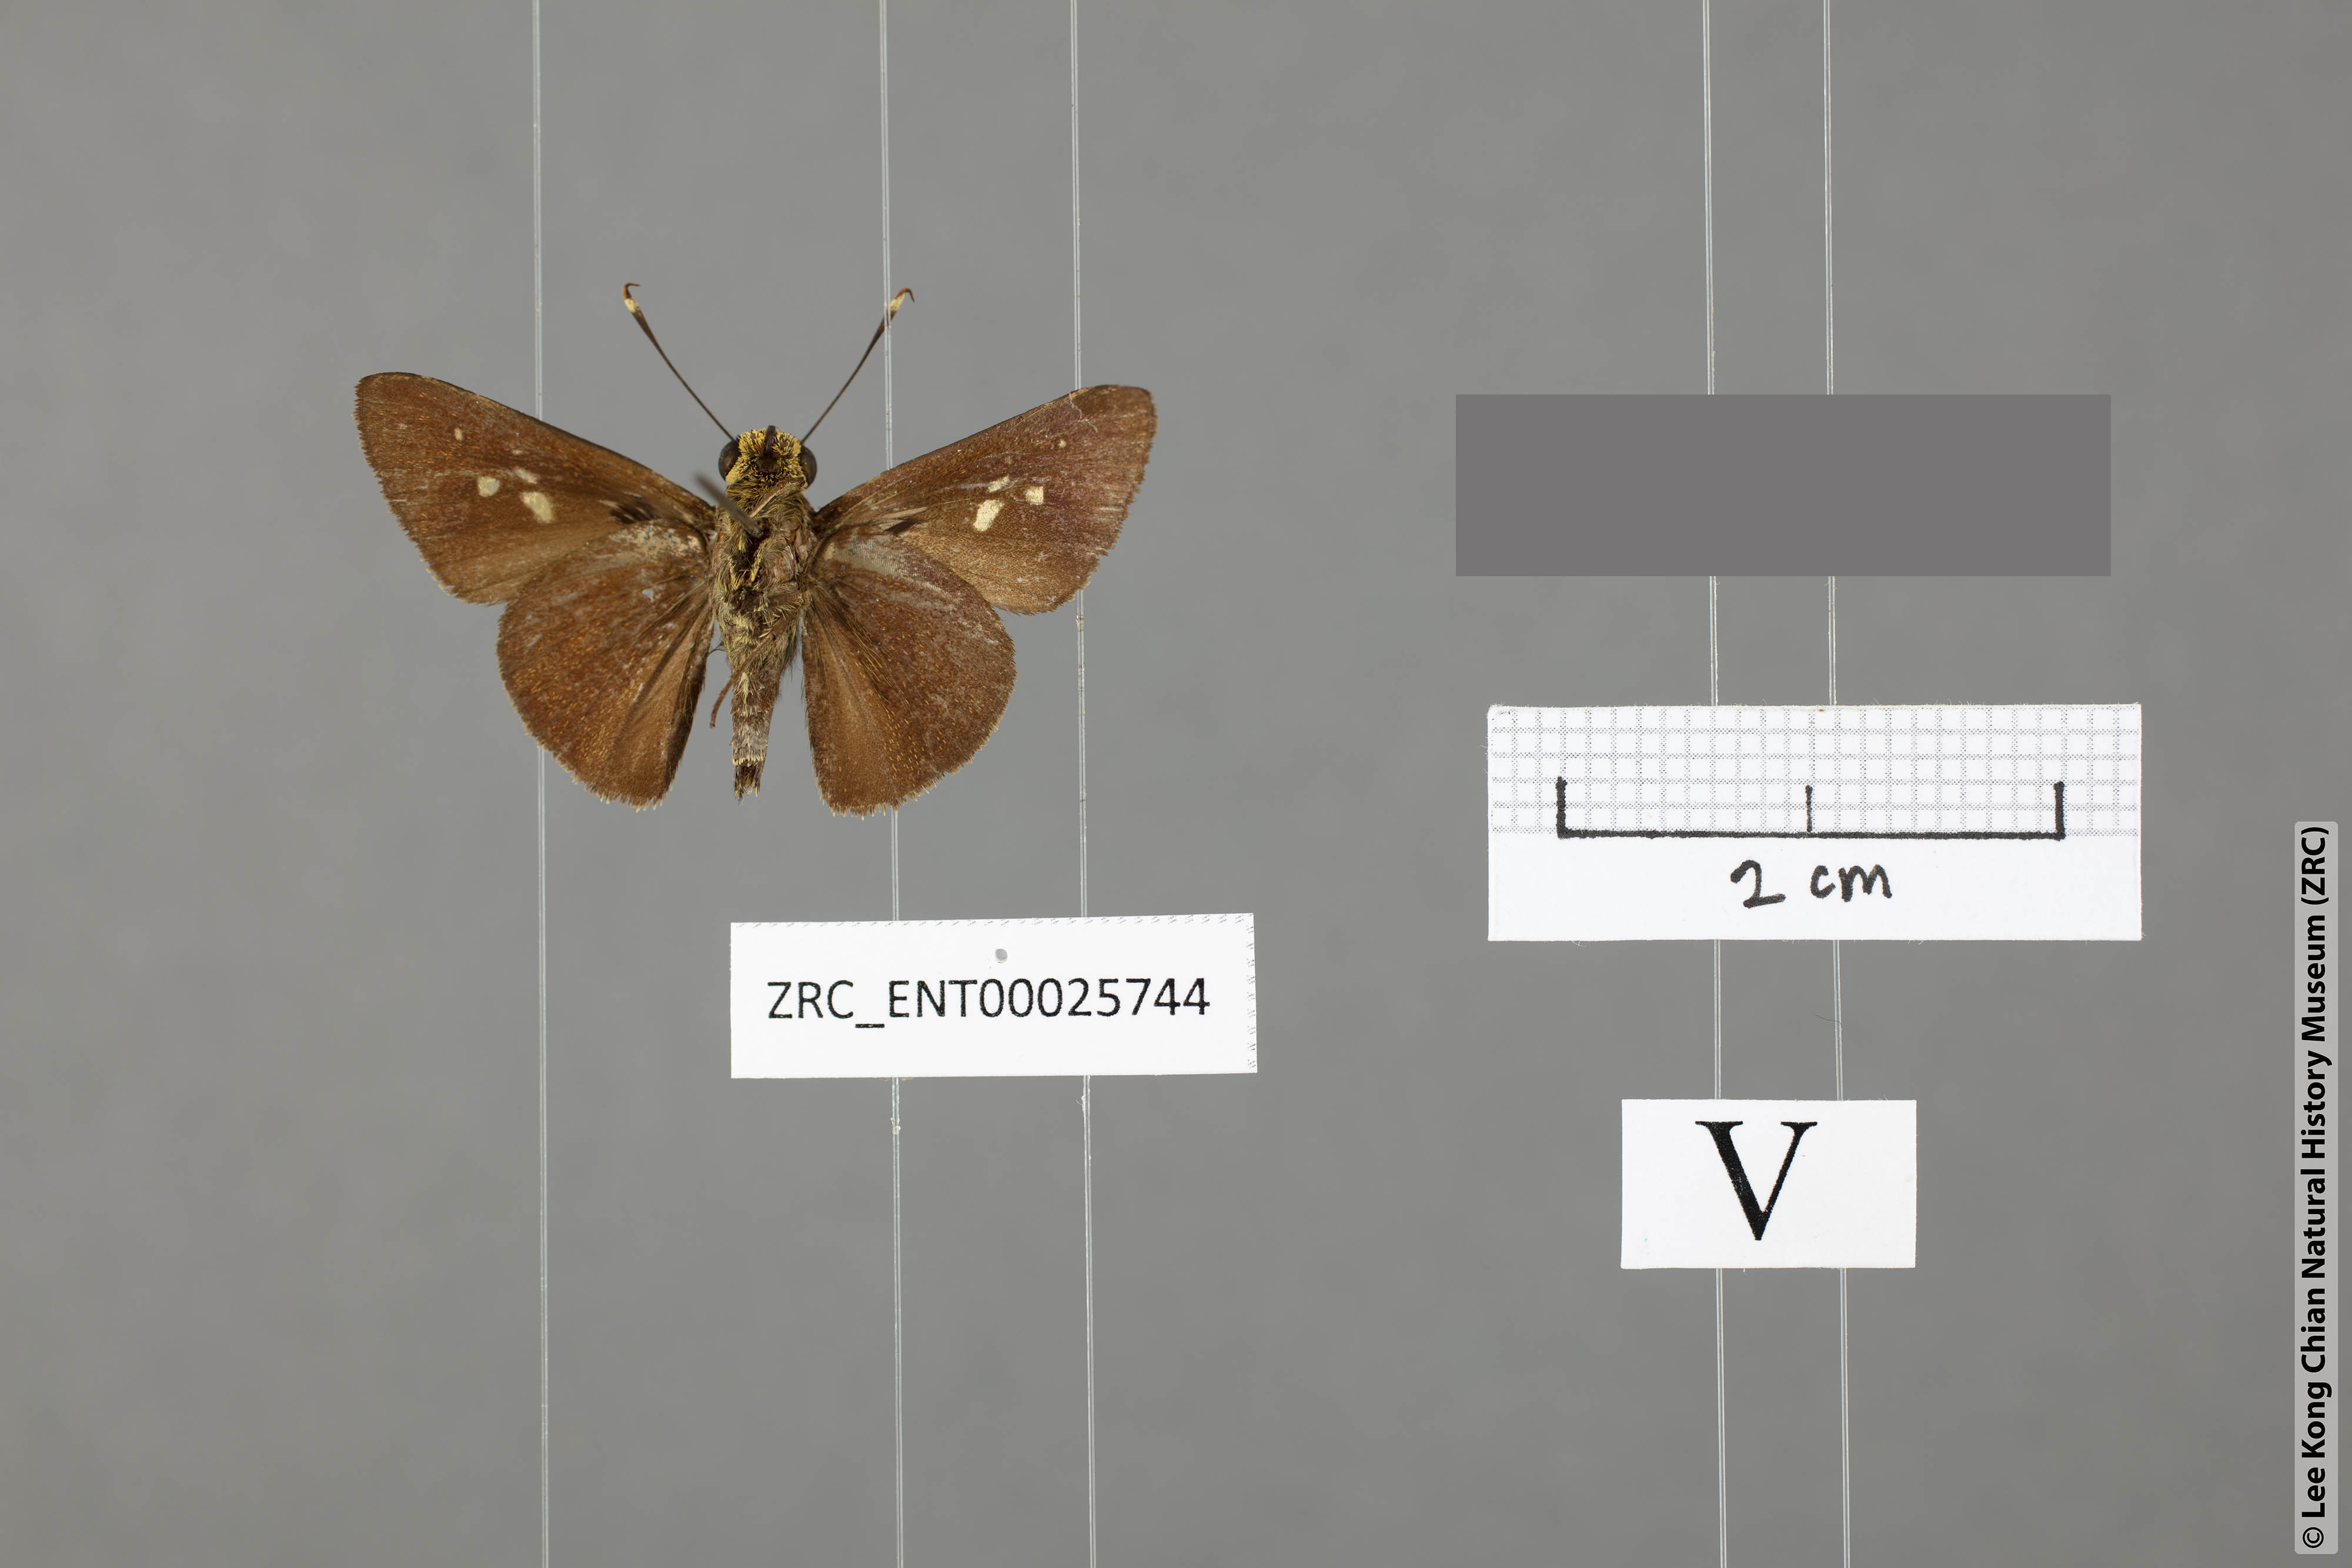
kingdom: Animalia
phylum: Arthropoda
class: Insecta
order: Lepidoptera
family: Hesperiidae
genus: Zographetus
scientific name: Zographetus rama
